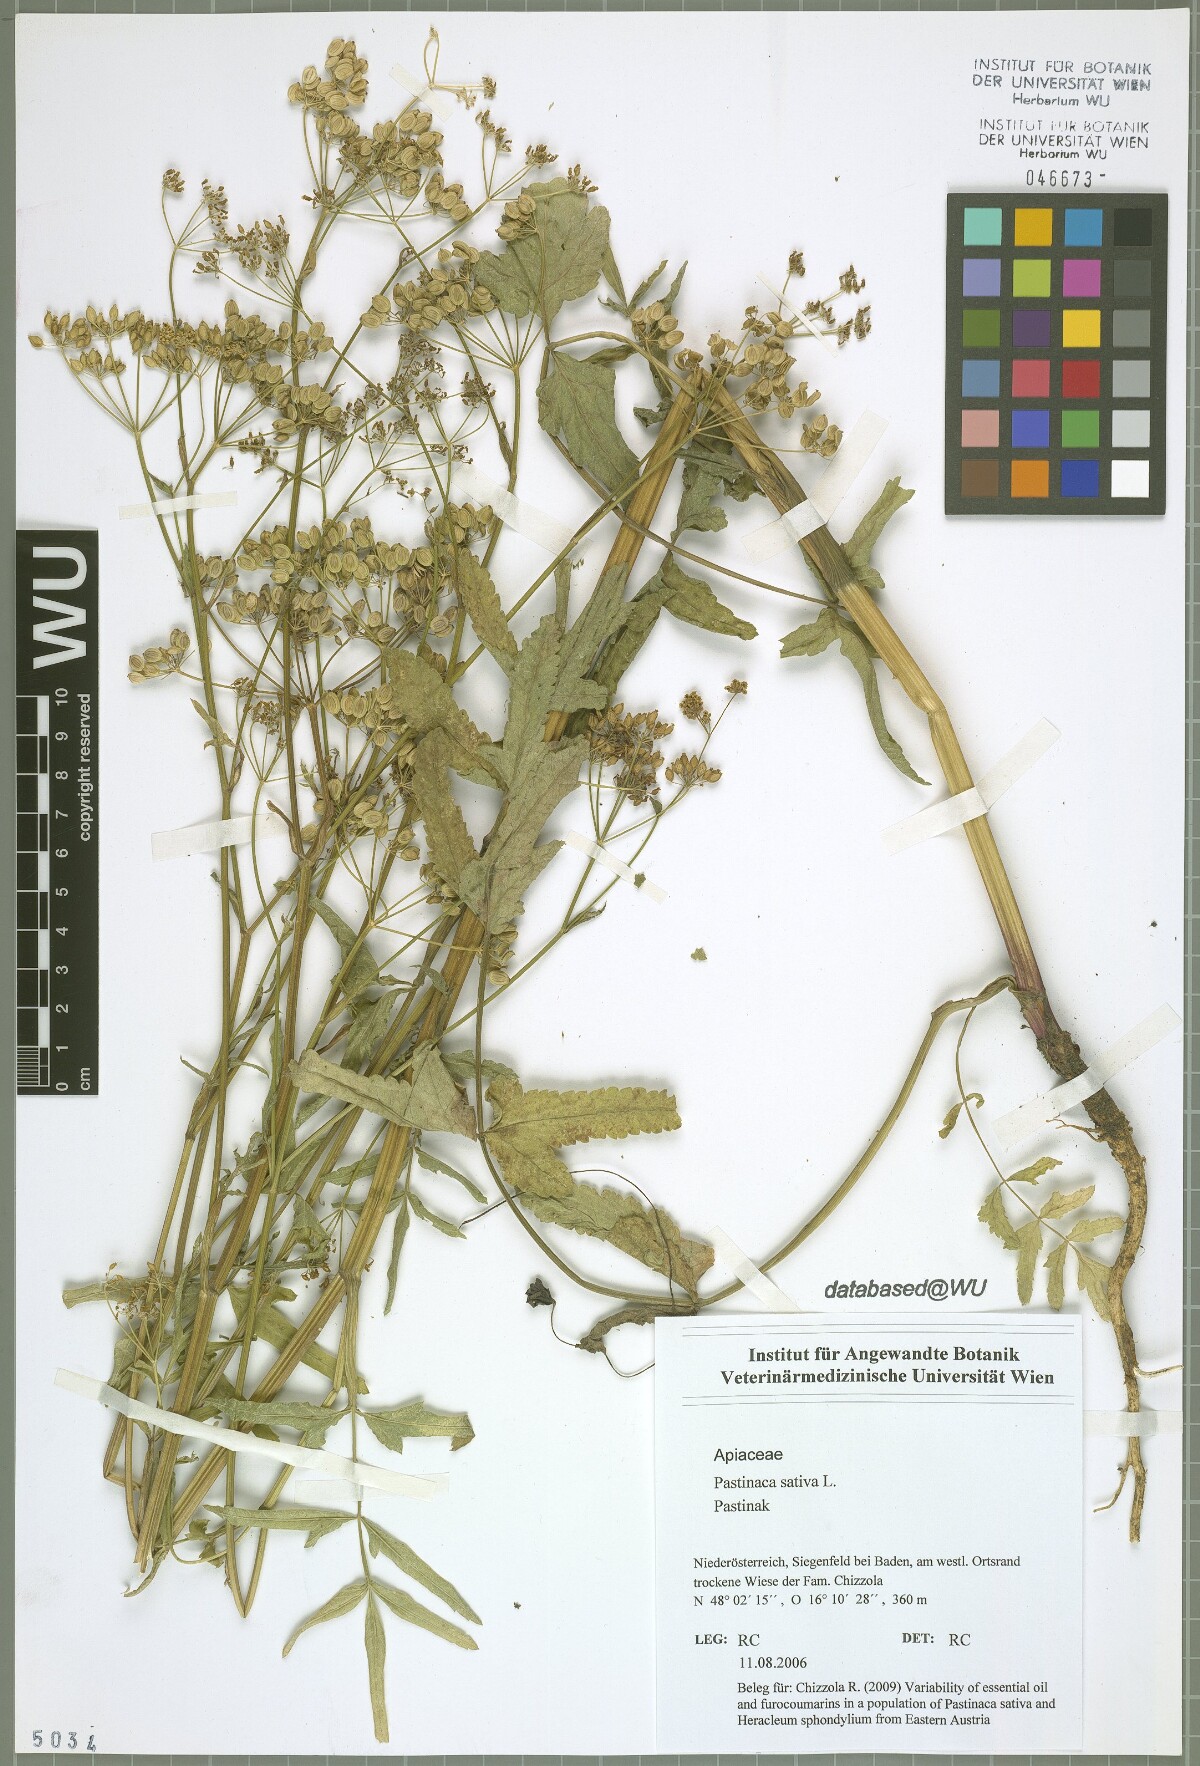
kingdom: Plantae
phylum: Tracheophyta
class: Magnoliopsida
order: Apiales
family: Apiaceae
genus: Pastinaca
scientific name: Pastinaca sativa
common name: Wild parsnip
